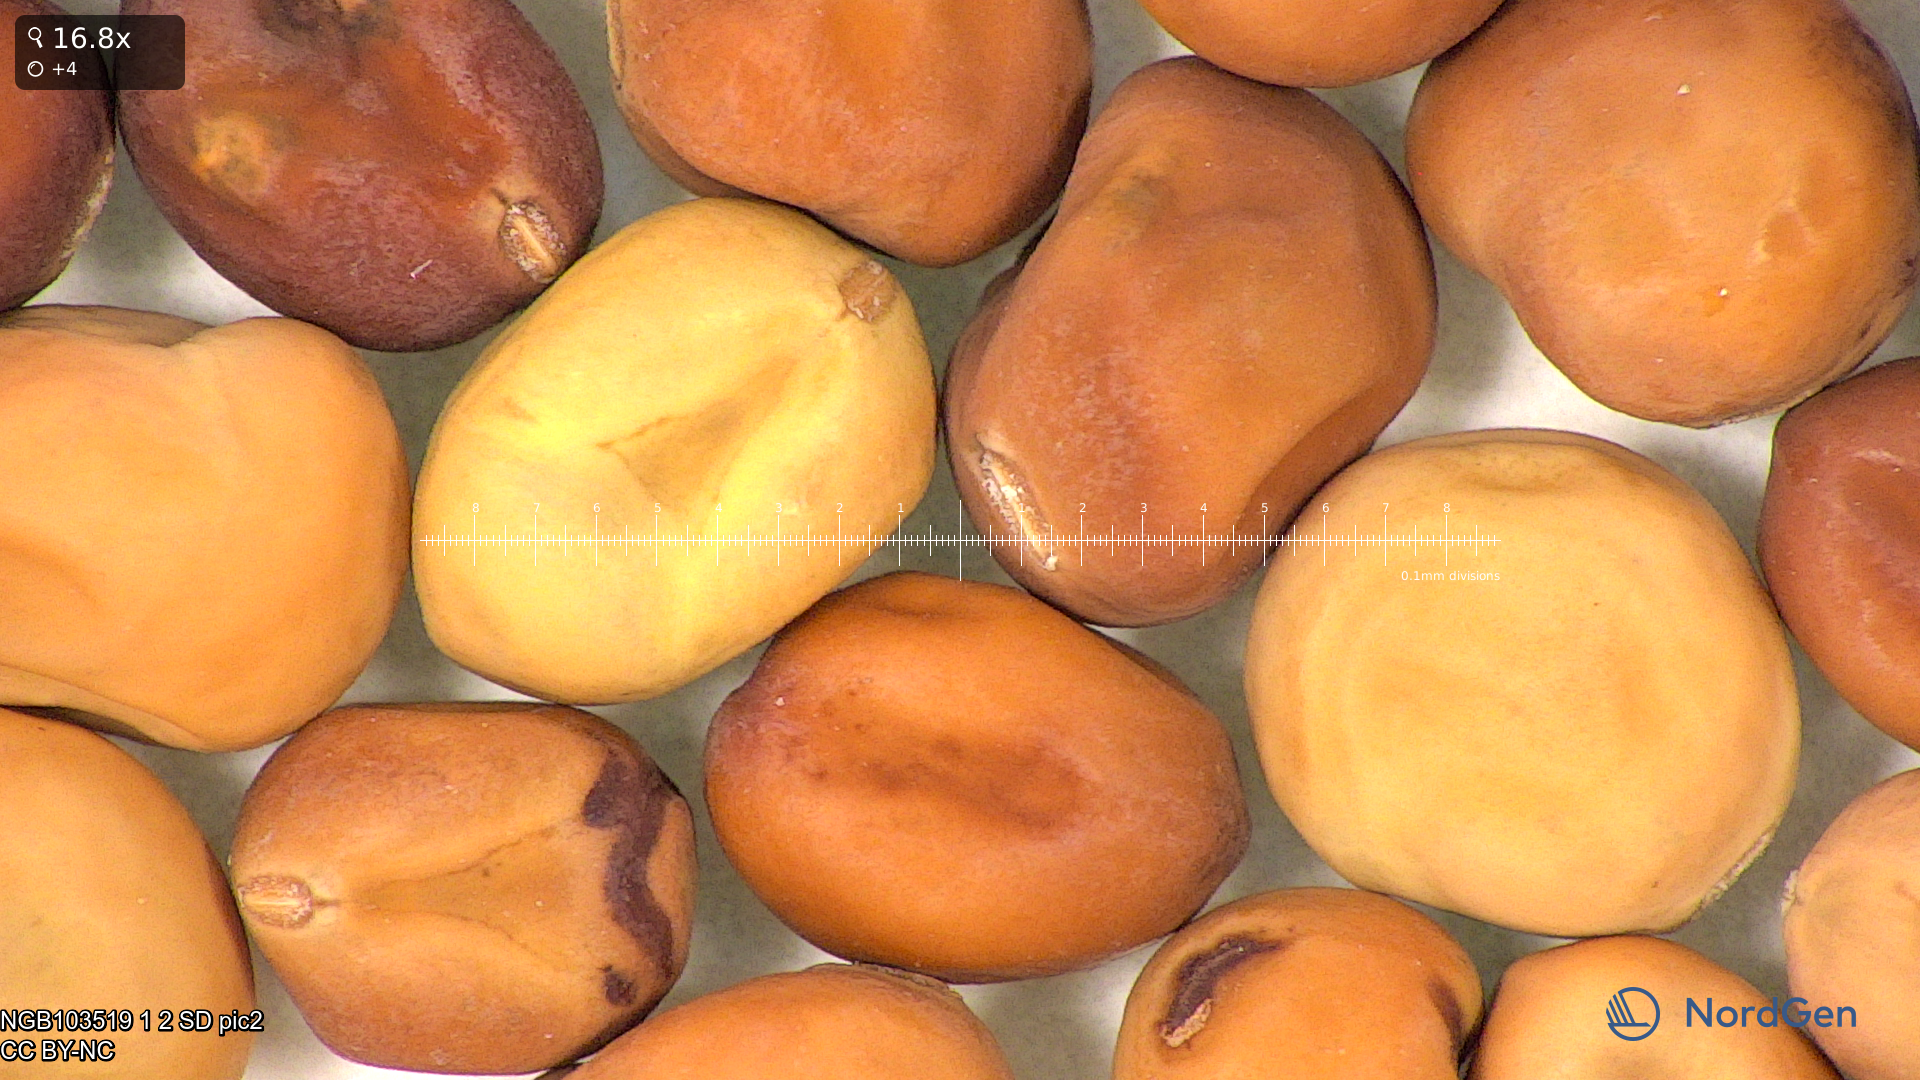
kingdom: Plantae
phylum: Tracheophyta
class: Magnoliopsida
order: Fabales
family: Fabaceae
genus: Lathyrus
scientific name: Lathyrus oleraceus
